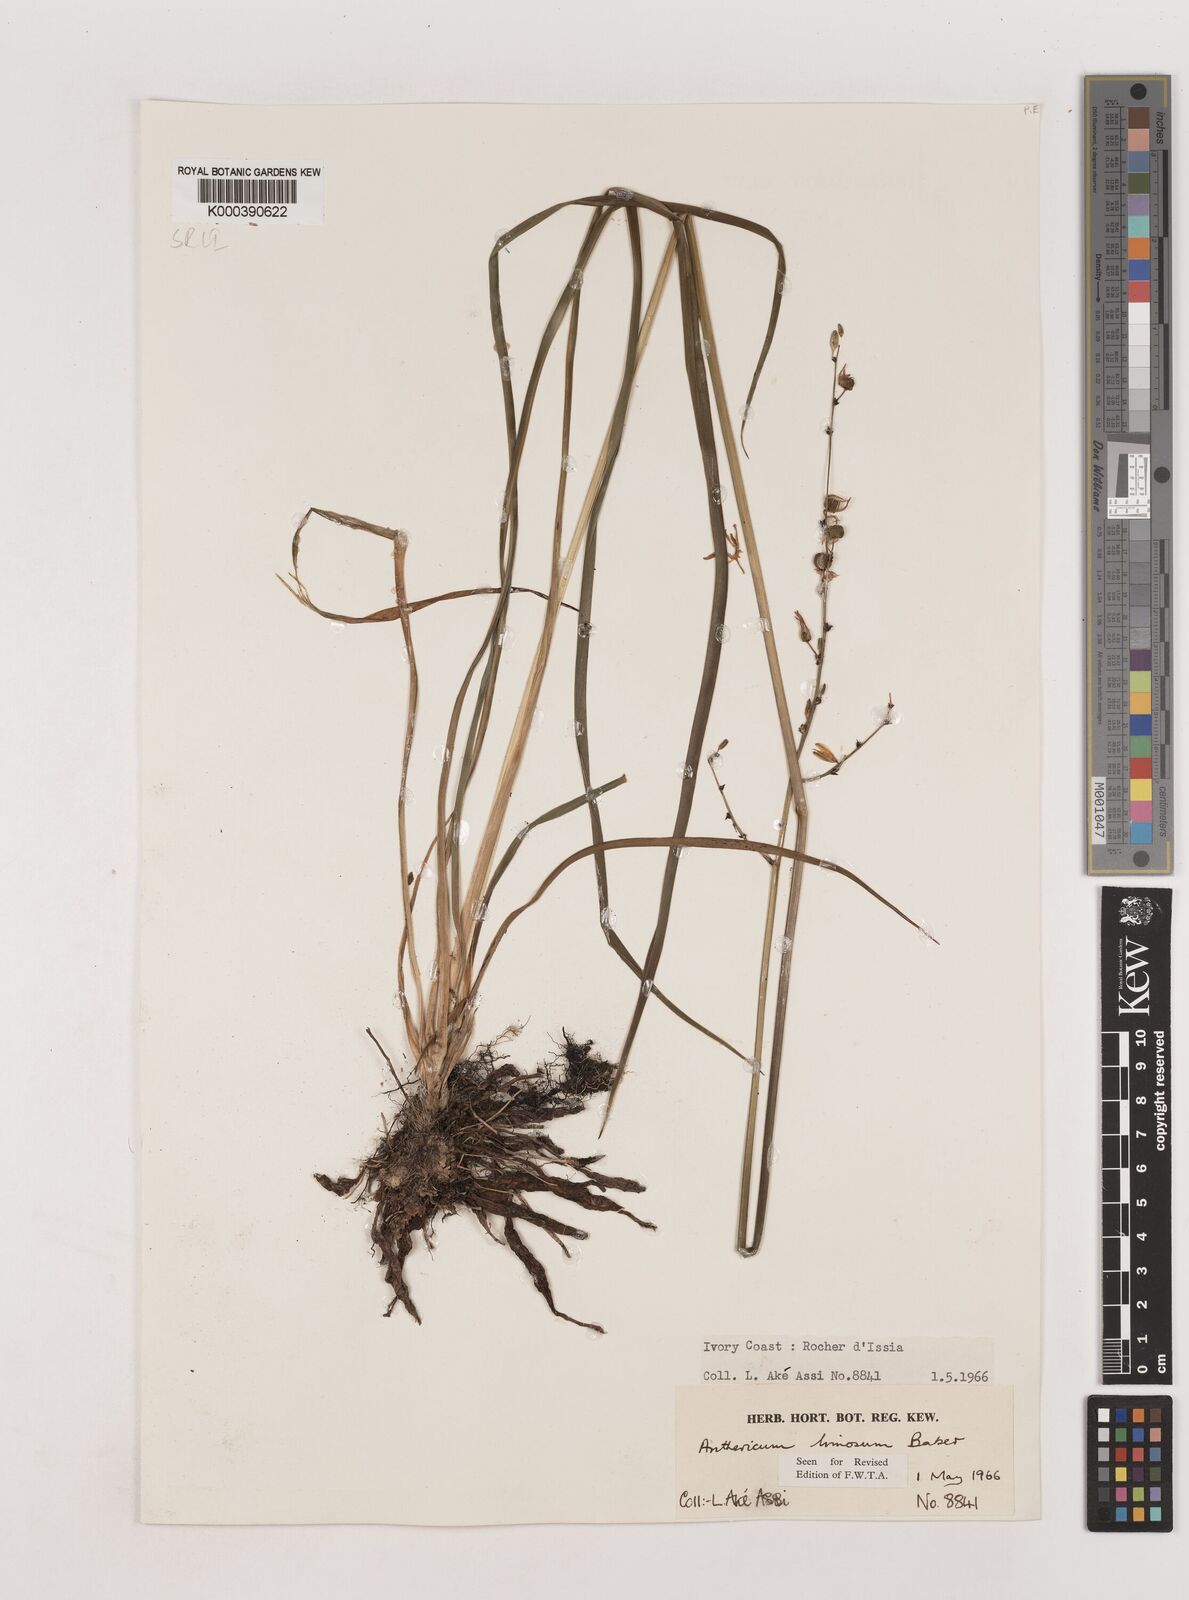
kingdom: Plantae
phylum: Tracheophyta
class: Liliopsida
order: Asparagales
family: Asparagaceae
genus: Chlorophytum
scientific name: Chlorophytum limosum
